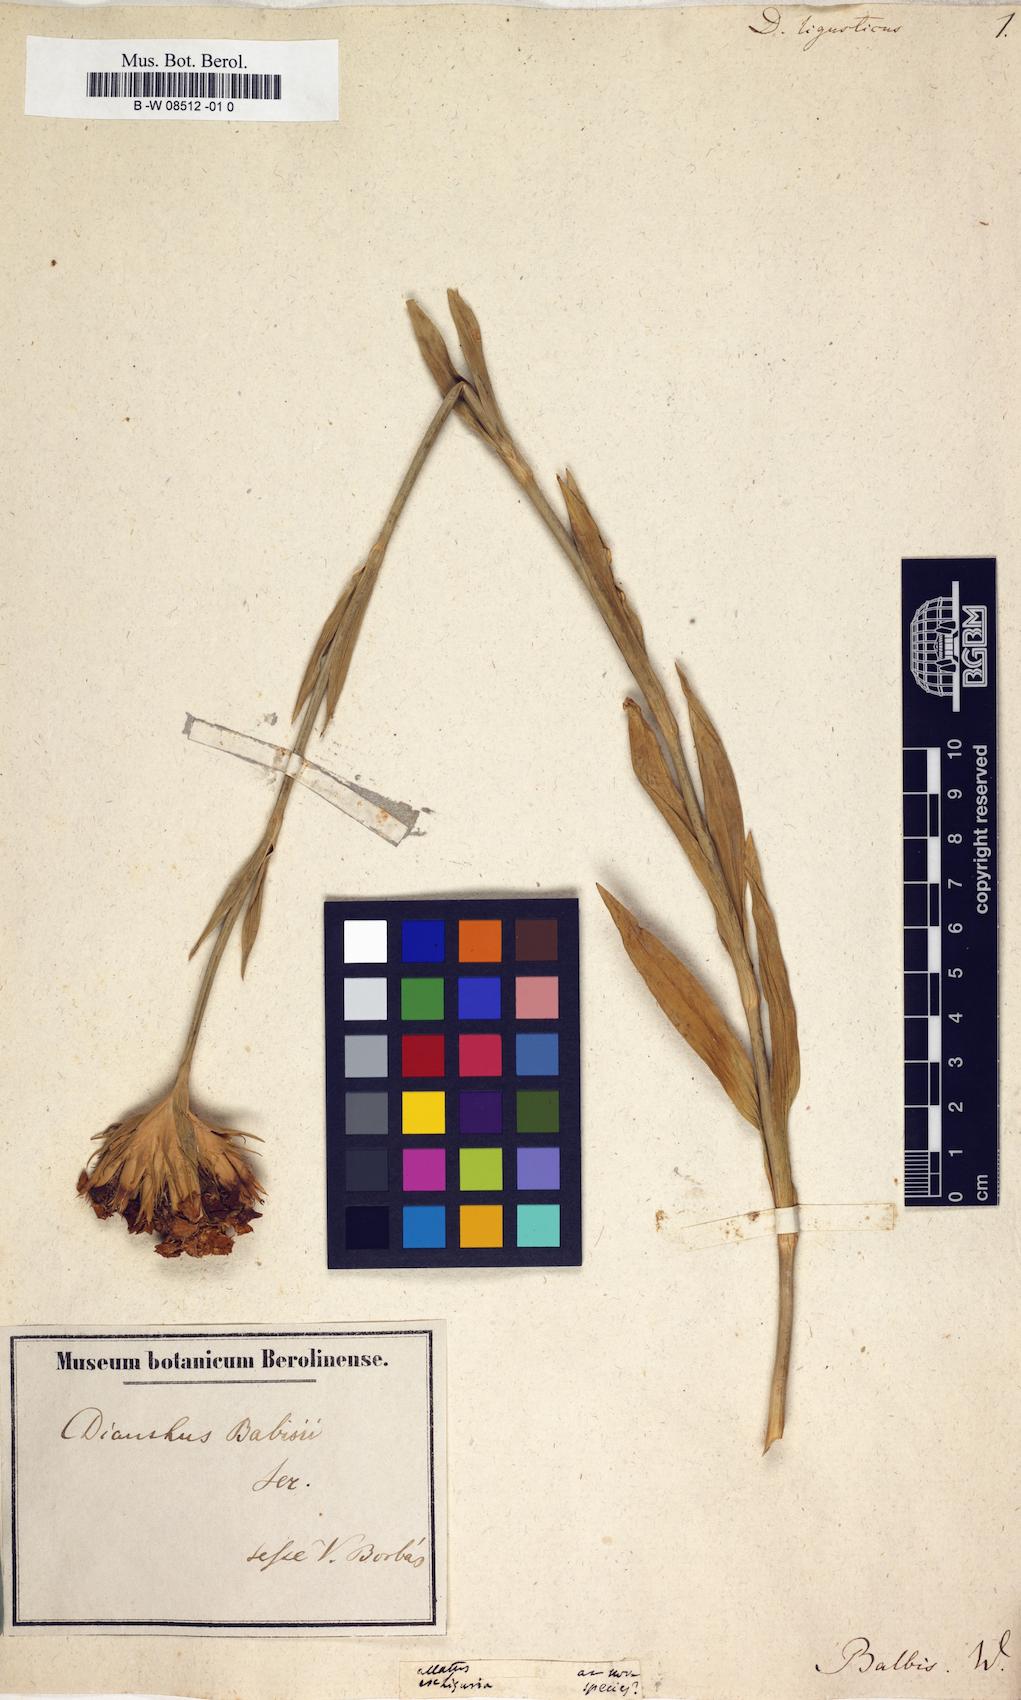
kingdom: Plantae
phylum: Tracheophyta
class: Magnoliopsida
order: Caryophyllales
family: Caryophyllaceae
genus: Dianthus
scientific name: Dianthus balbisii
